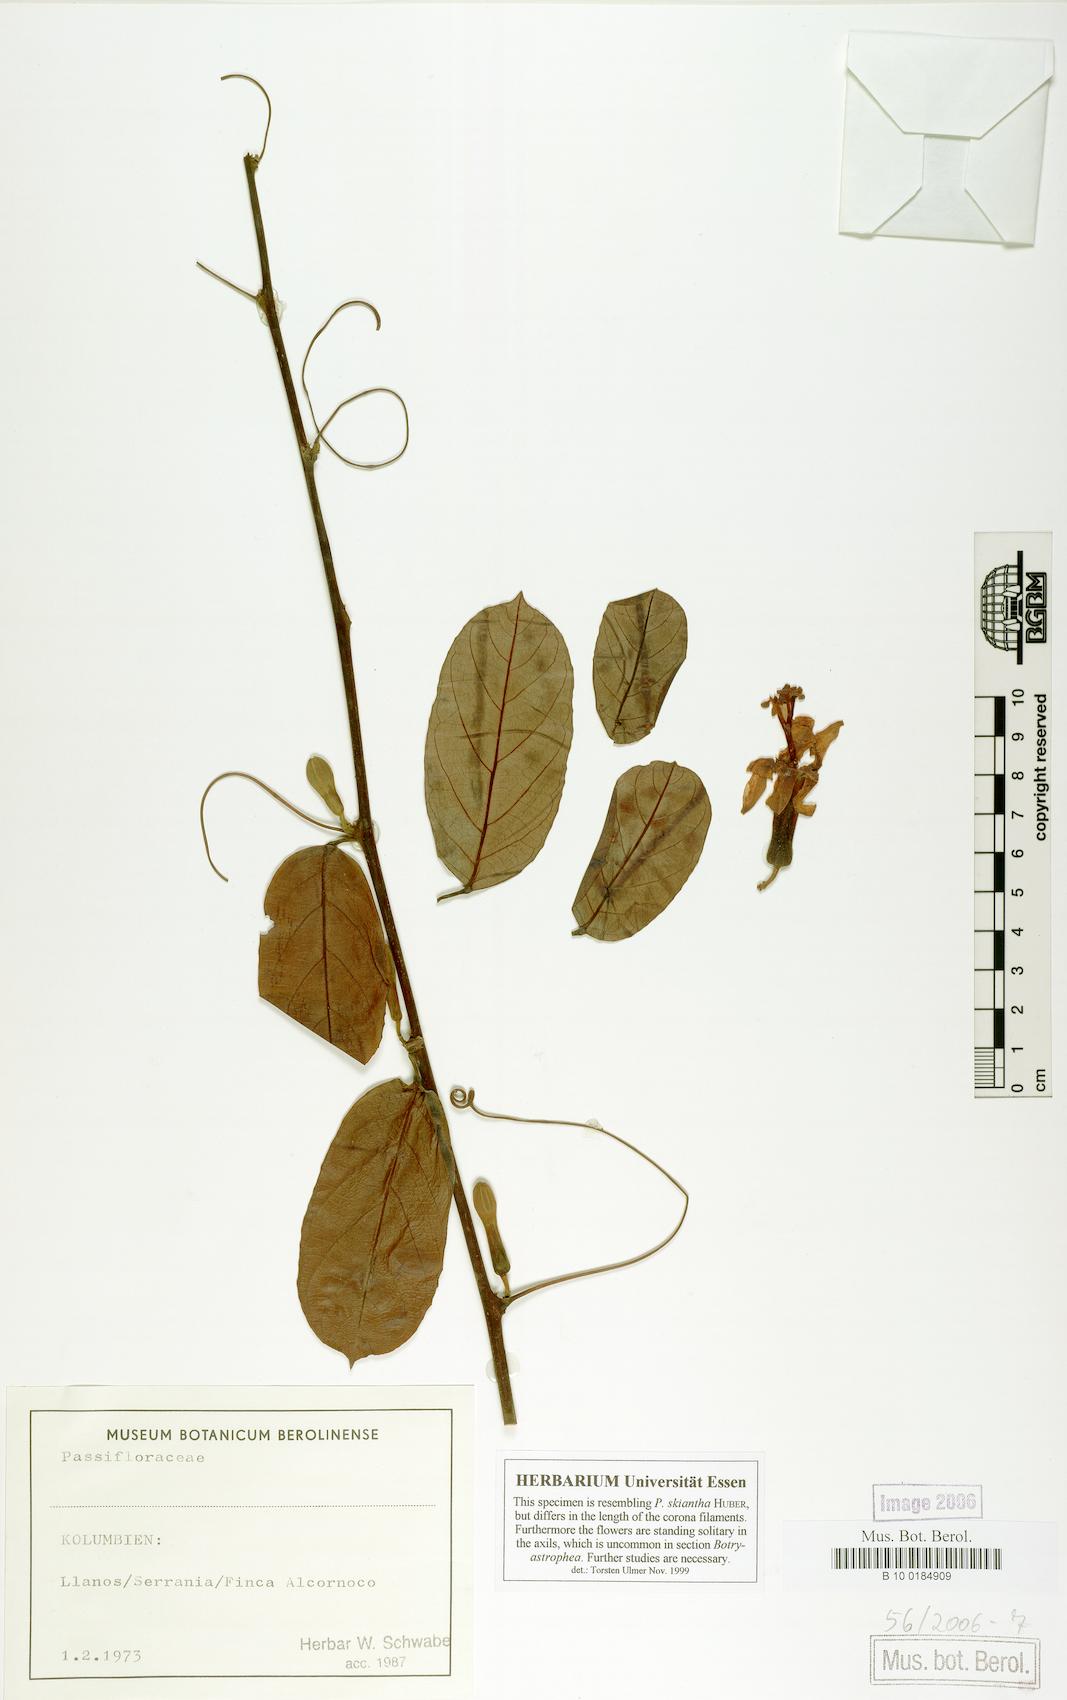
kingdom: Plantae
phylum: Tracheophyta
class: Magnoliopsida
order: Malpighiales
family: Passifloraceae
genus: Passiflora
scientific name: Passiflora skiantha
